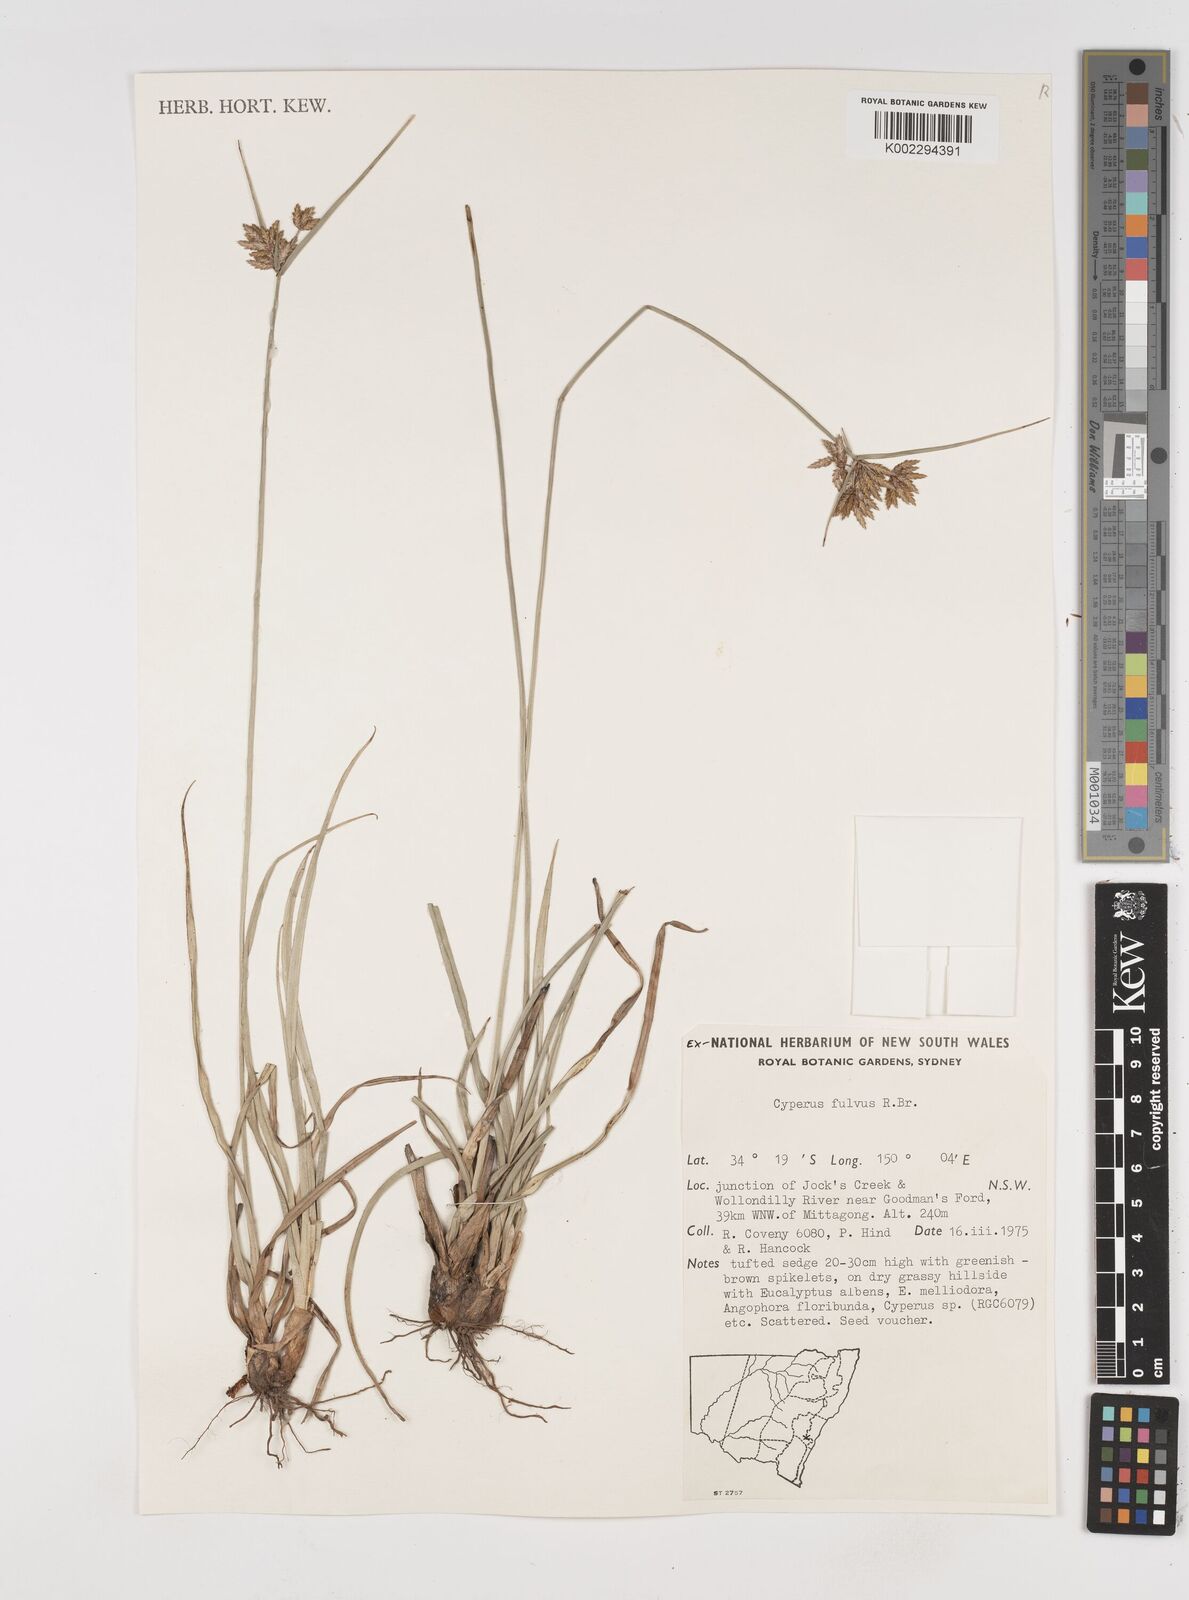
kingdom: Plantae
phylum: Tracheophyta
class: Liliopsida
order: Poales
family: Cyperaceae
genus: Cyperus
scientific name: Cyperus fulvus
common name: Sticky sedge
